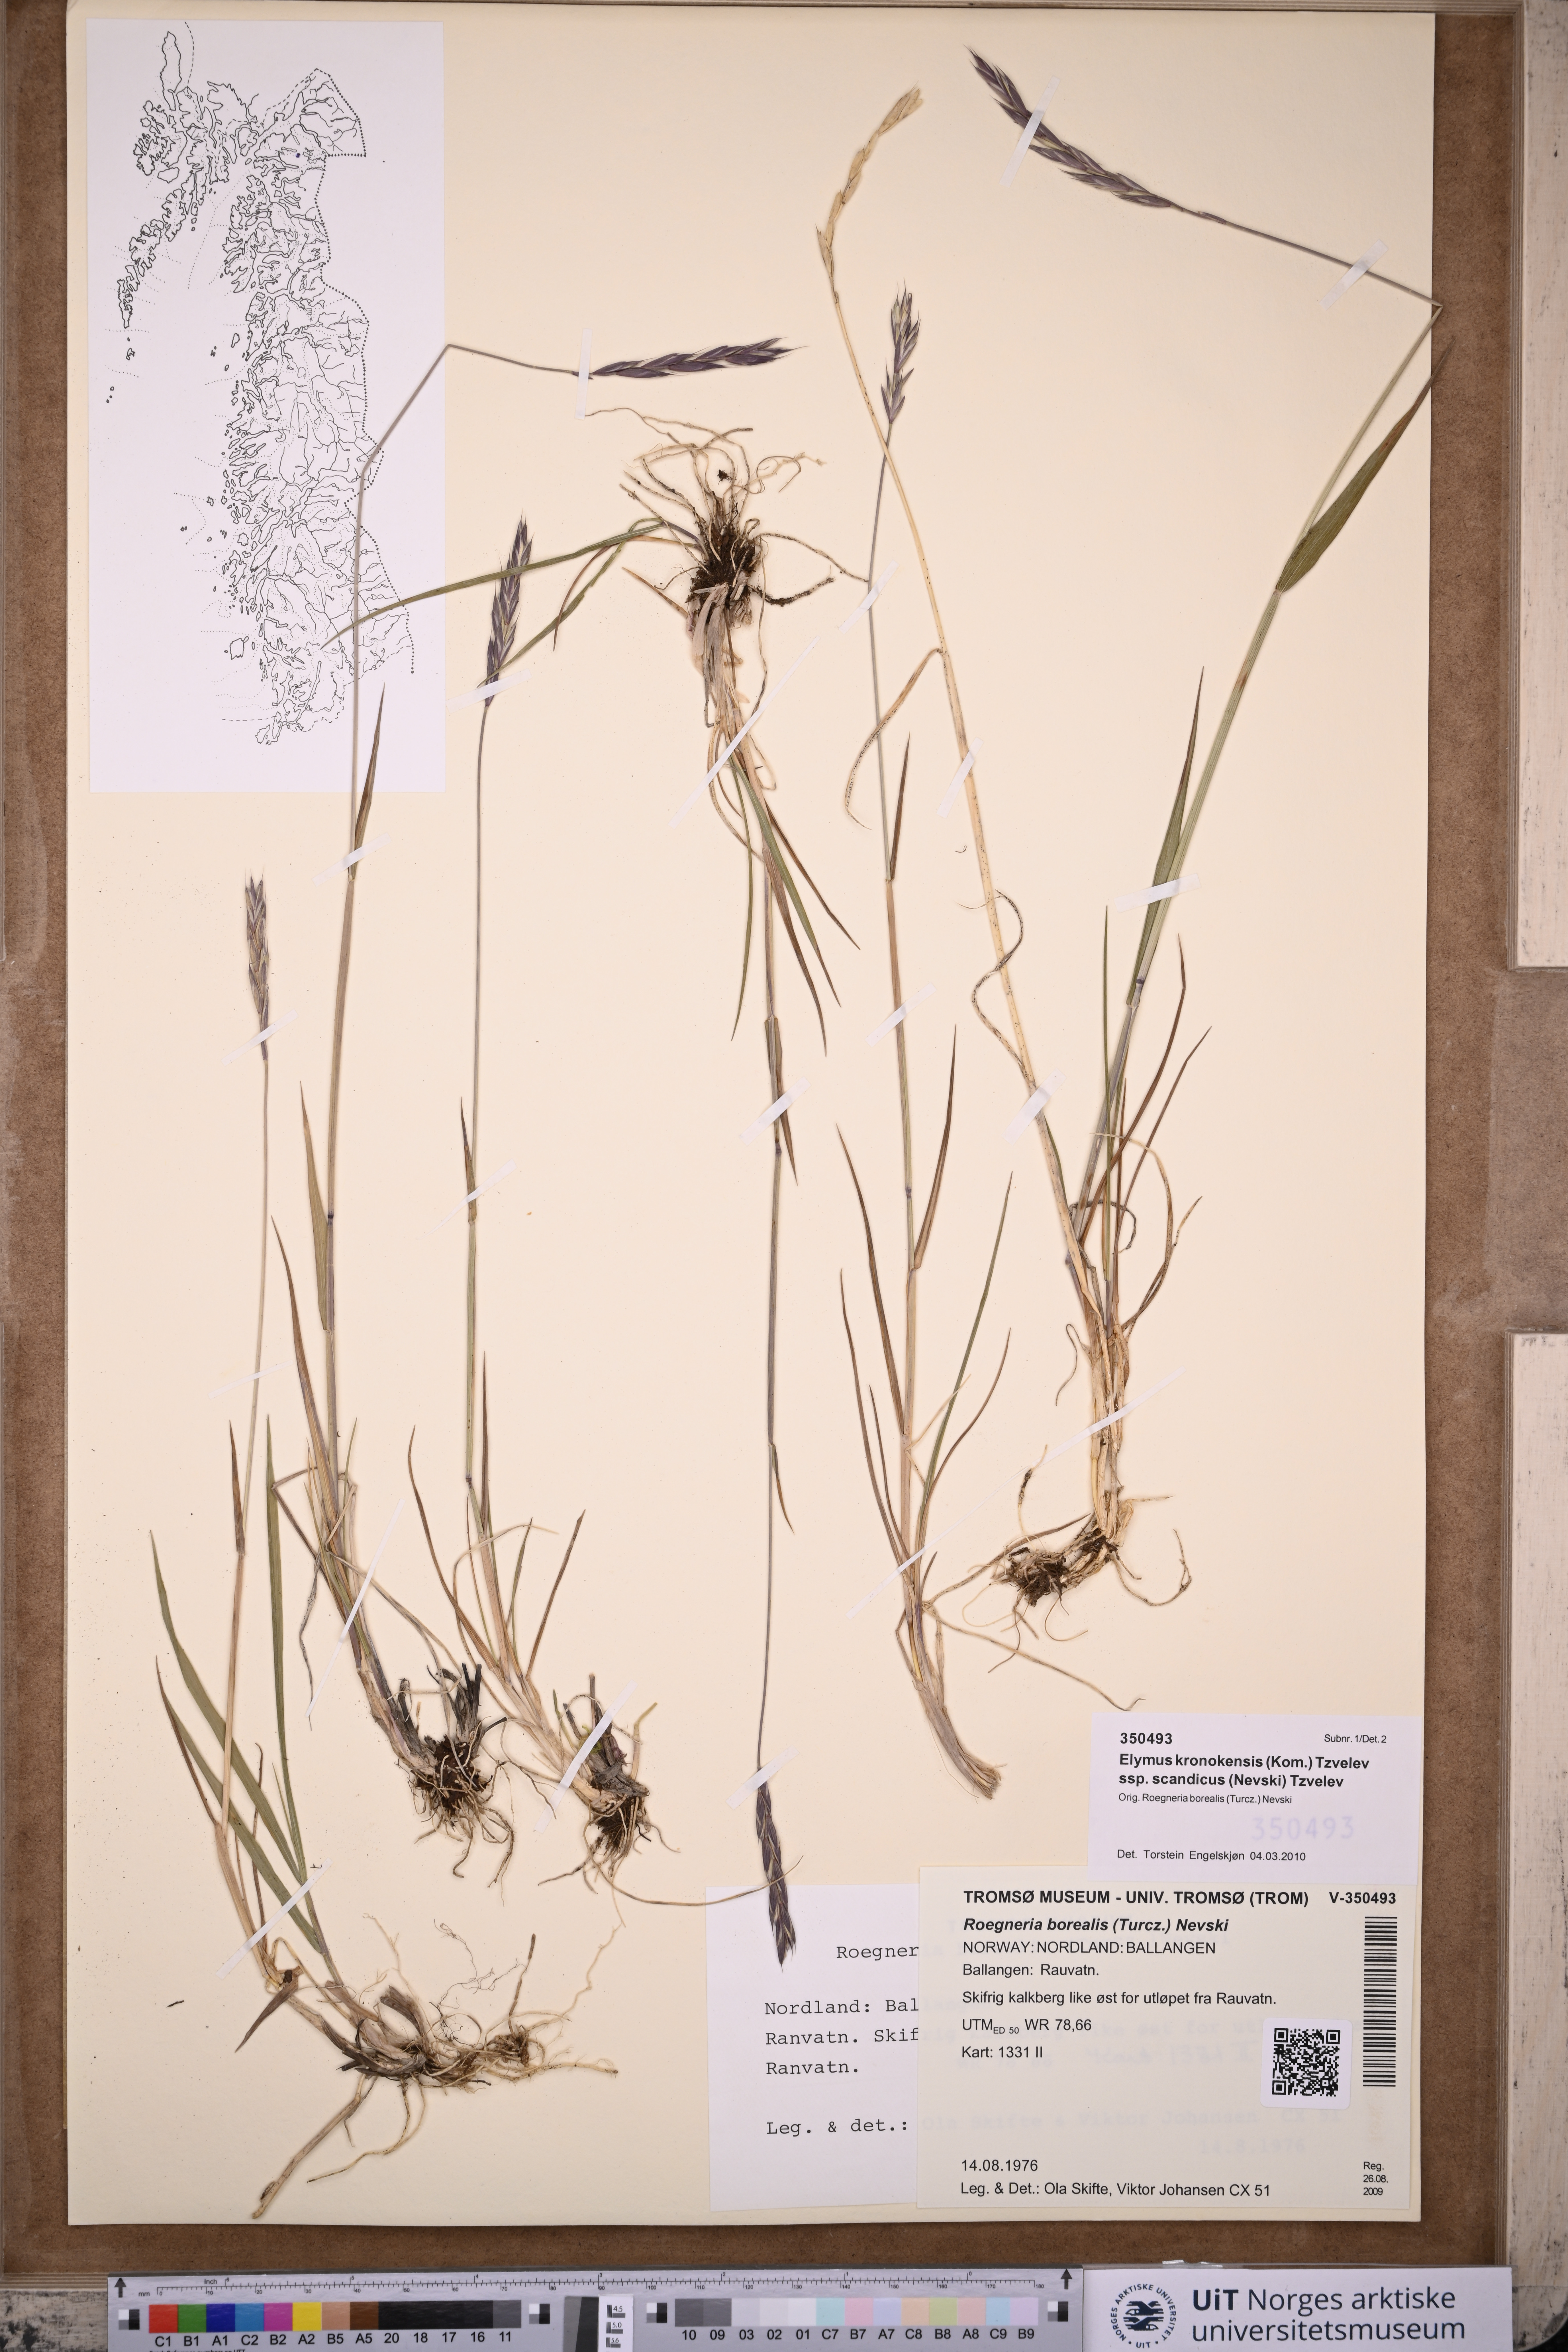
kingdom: Plantae
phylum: Tracheophyta
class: Liliopsida
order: Poales
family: Poaceae
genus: Elymus
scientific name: Elymus macrourus
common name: Northern wheatgrass
